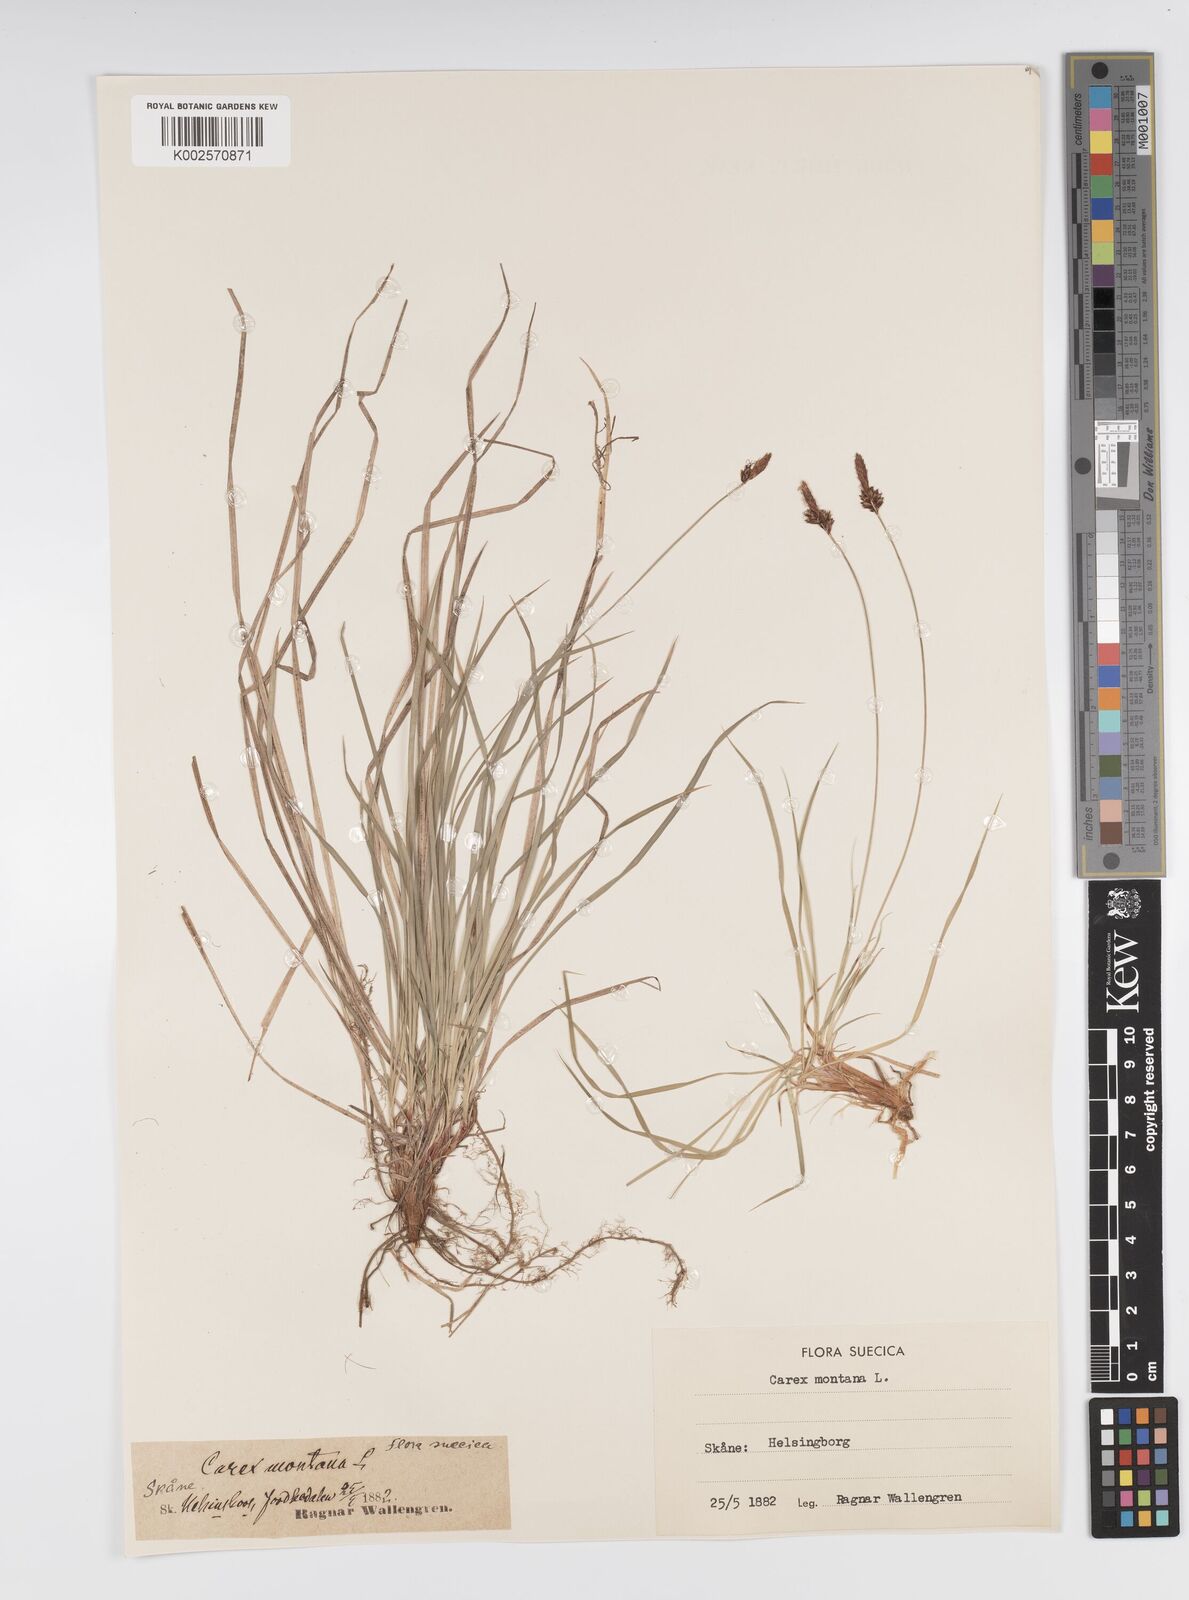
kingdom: Plantae
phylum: Tracheophyta
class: Liliopsida
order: Poales
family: Cyperaceae
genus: Carex
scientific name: Carex montana
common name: Soft-leaved sedge
